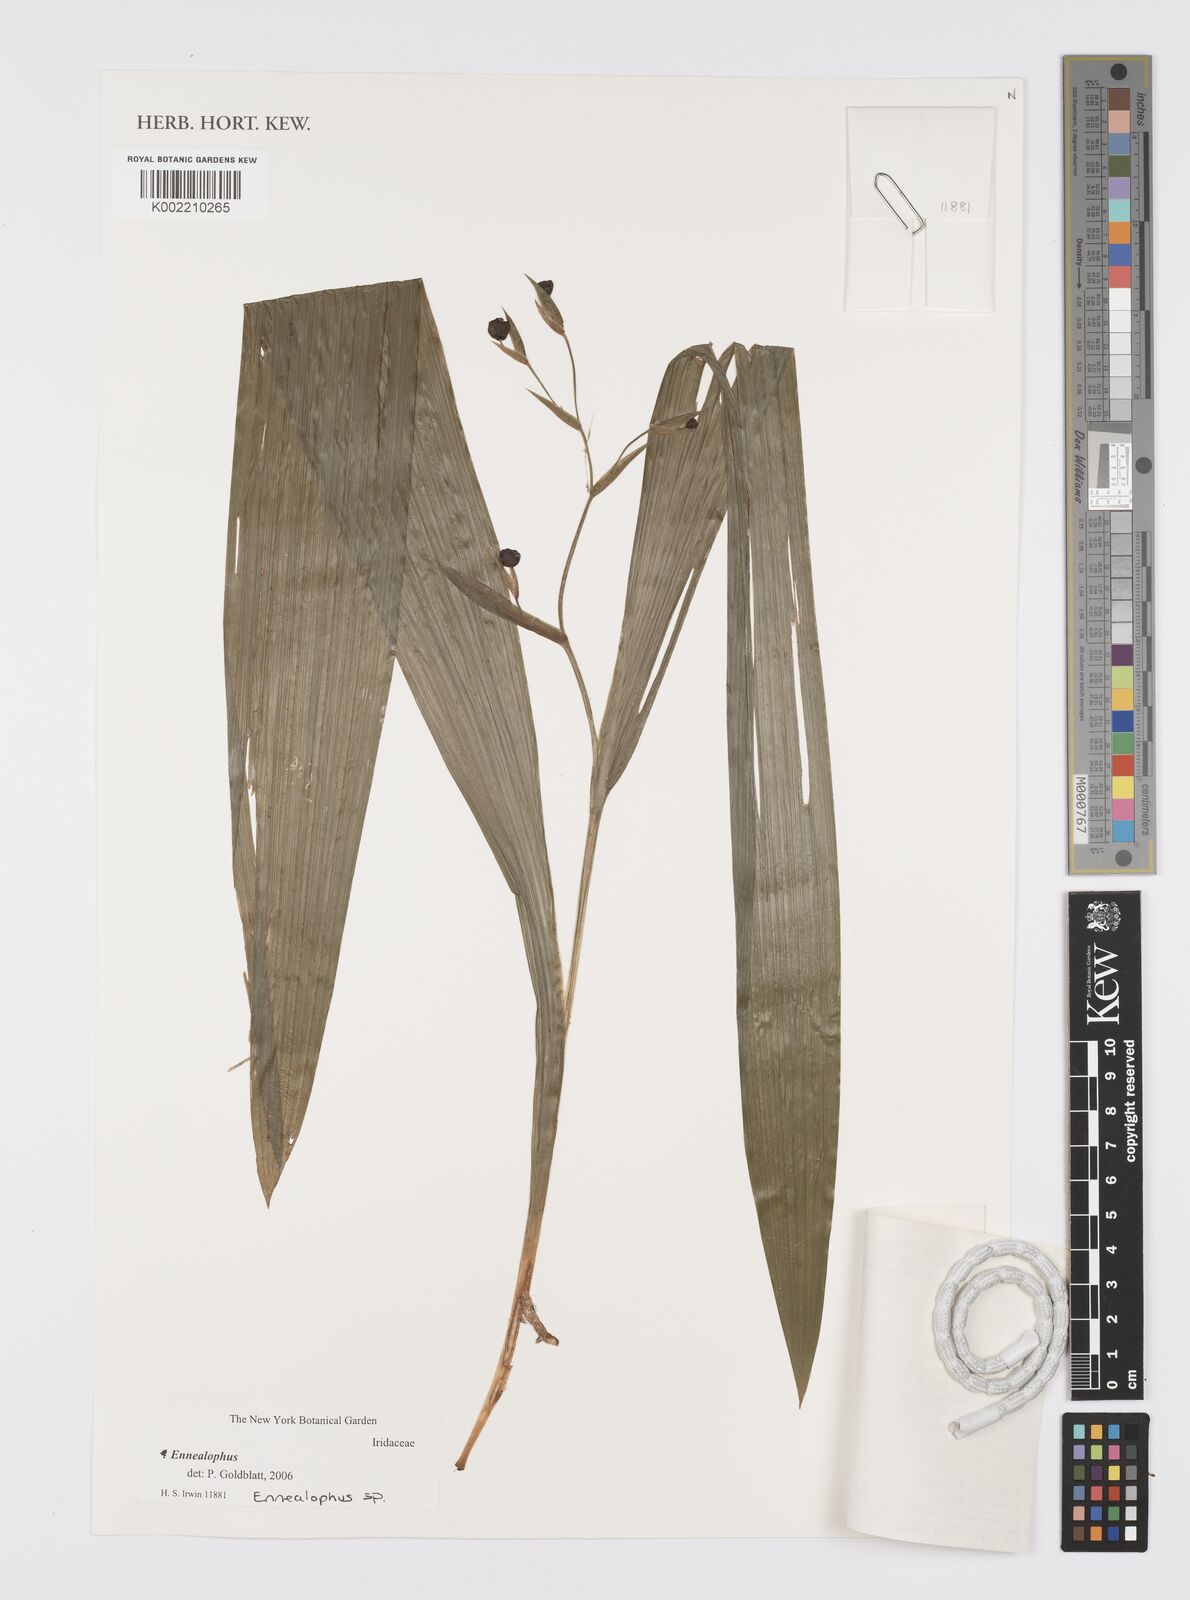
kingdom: Plantae
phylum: Tracheophyta
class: Liliopsida
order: Asparagales
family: Iridaceae
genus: Ennealophus
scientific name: Ennealophus foliosus
